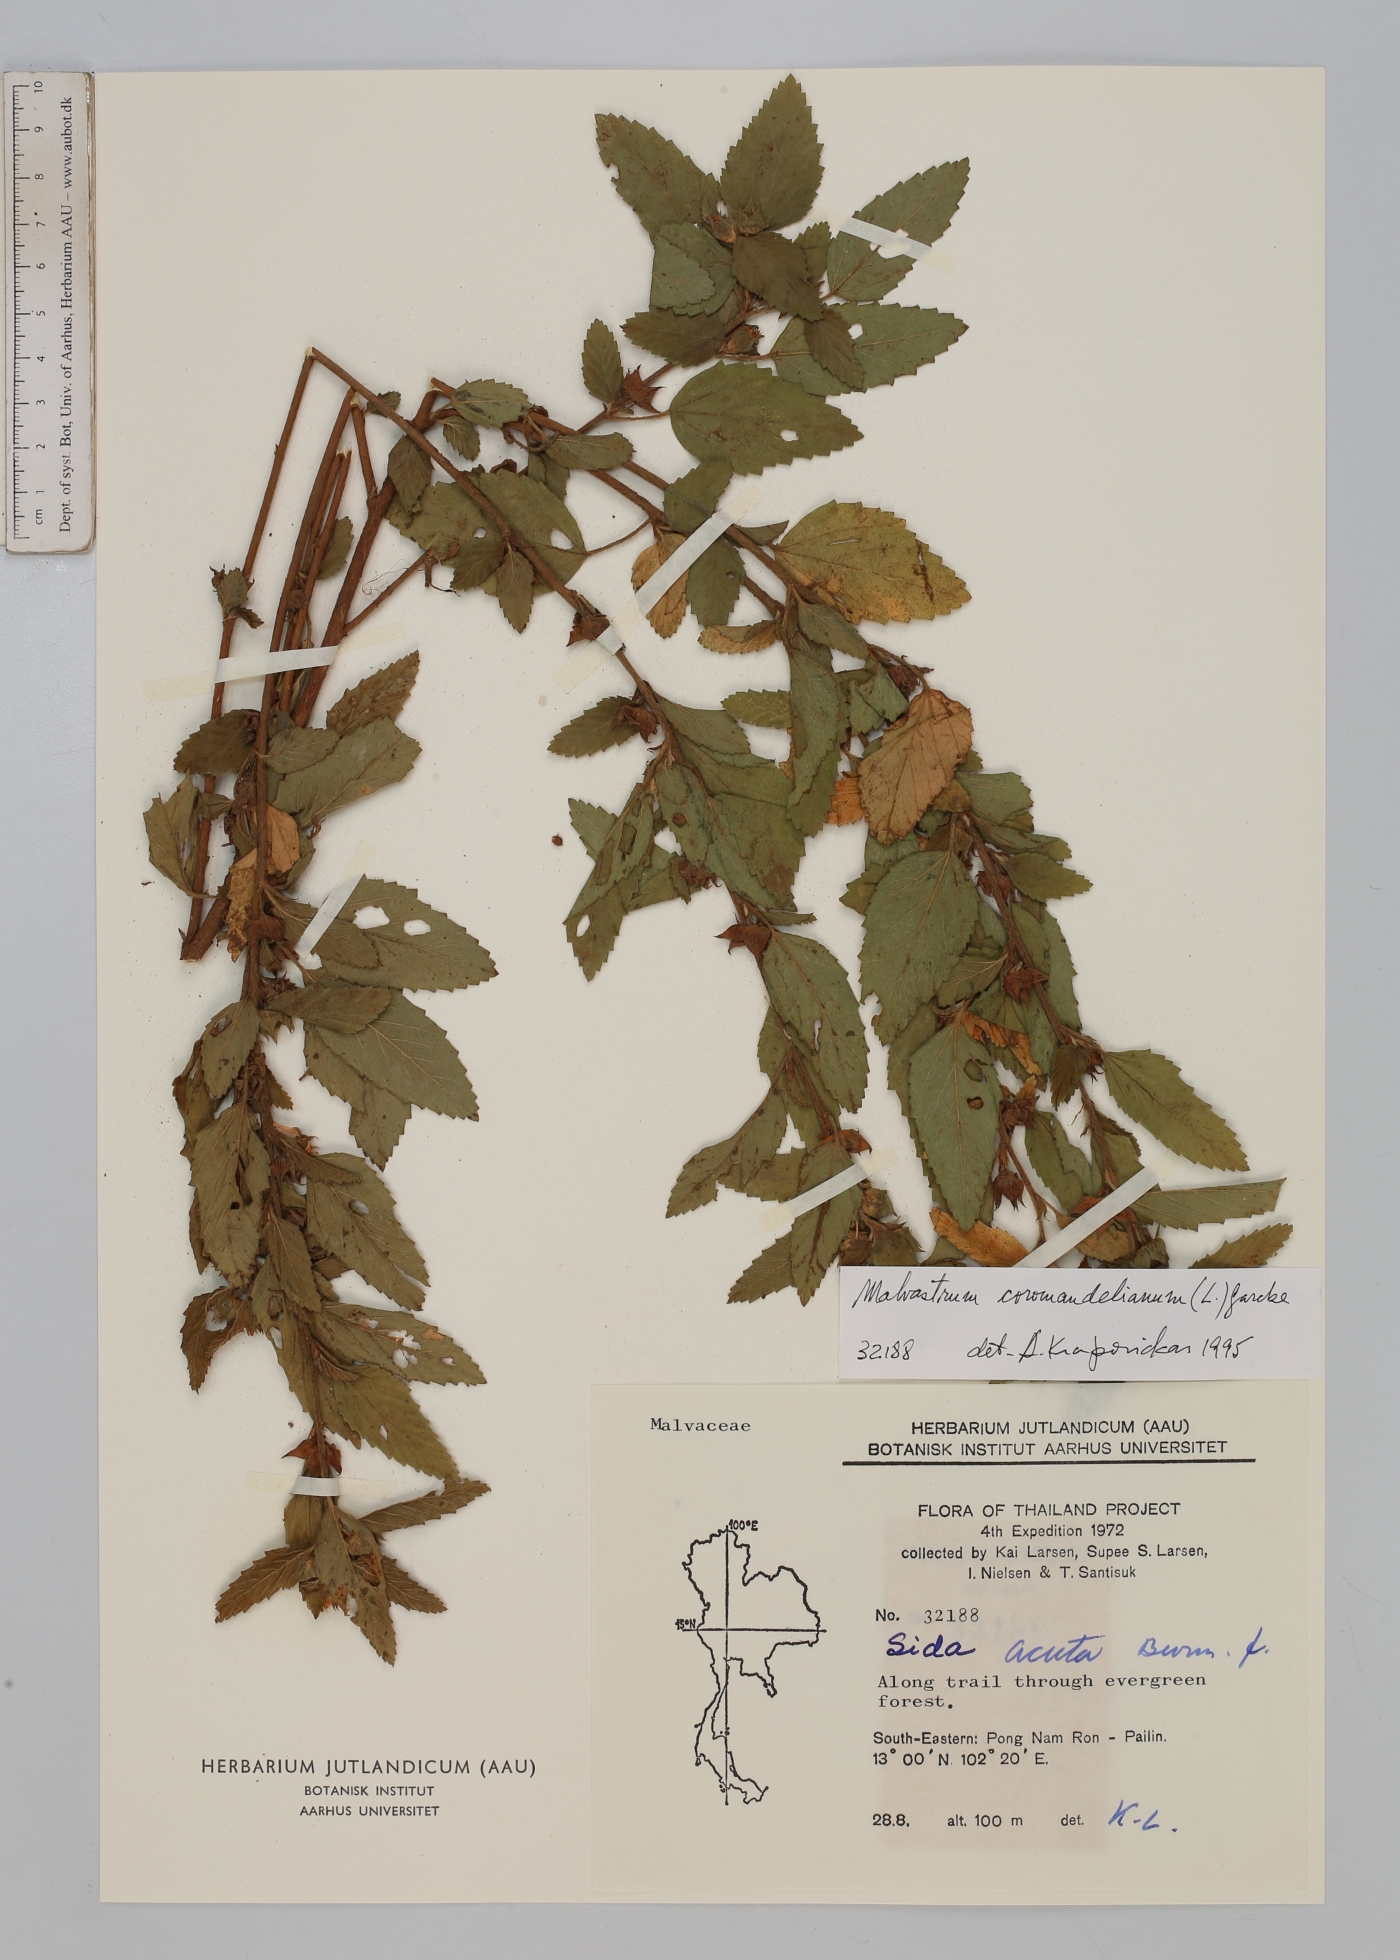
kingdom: Plantae
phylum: Tracheophyta
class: Magnoliopsida
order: Malvales
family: Malvaceae
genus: Malvastrum
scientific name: Malvastrum coromandelianum
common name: Threelobe false mallow
